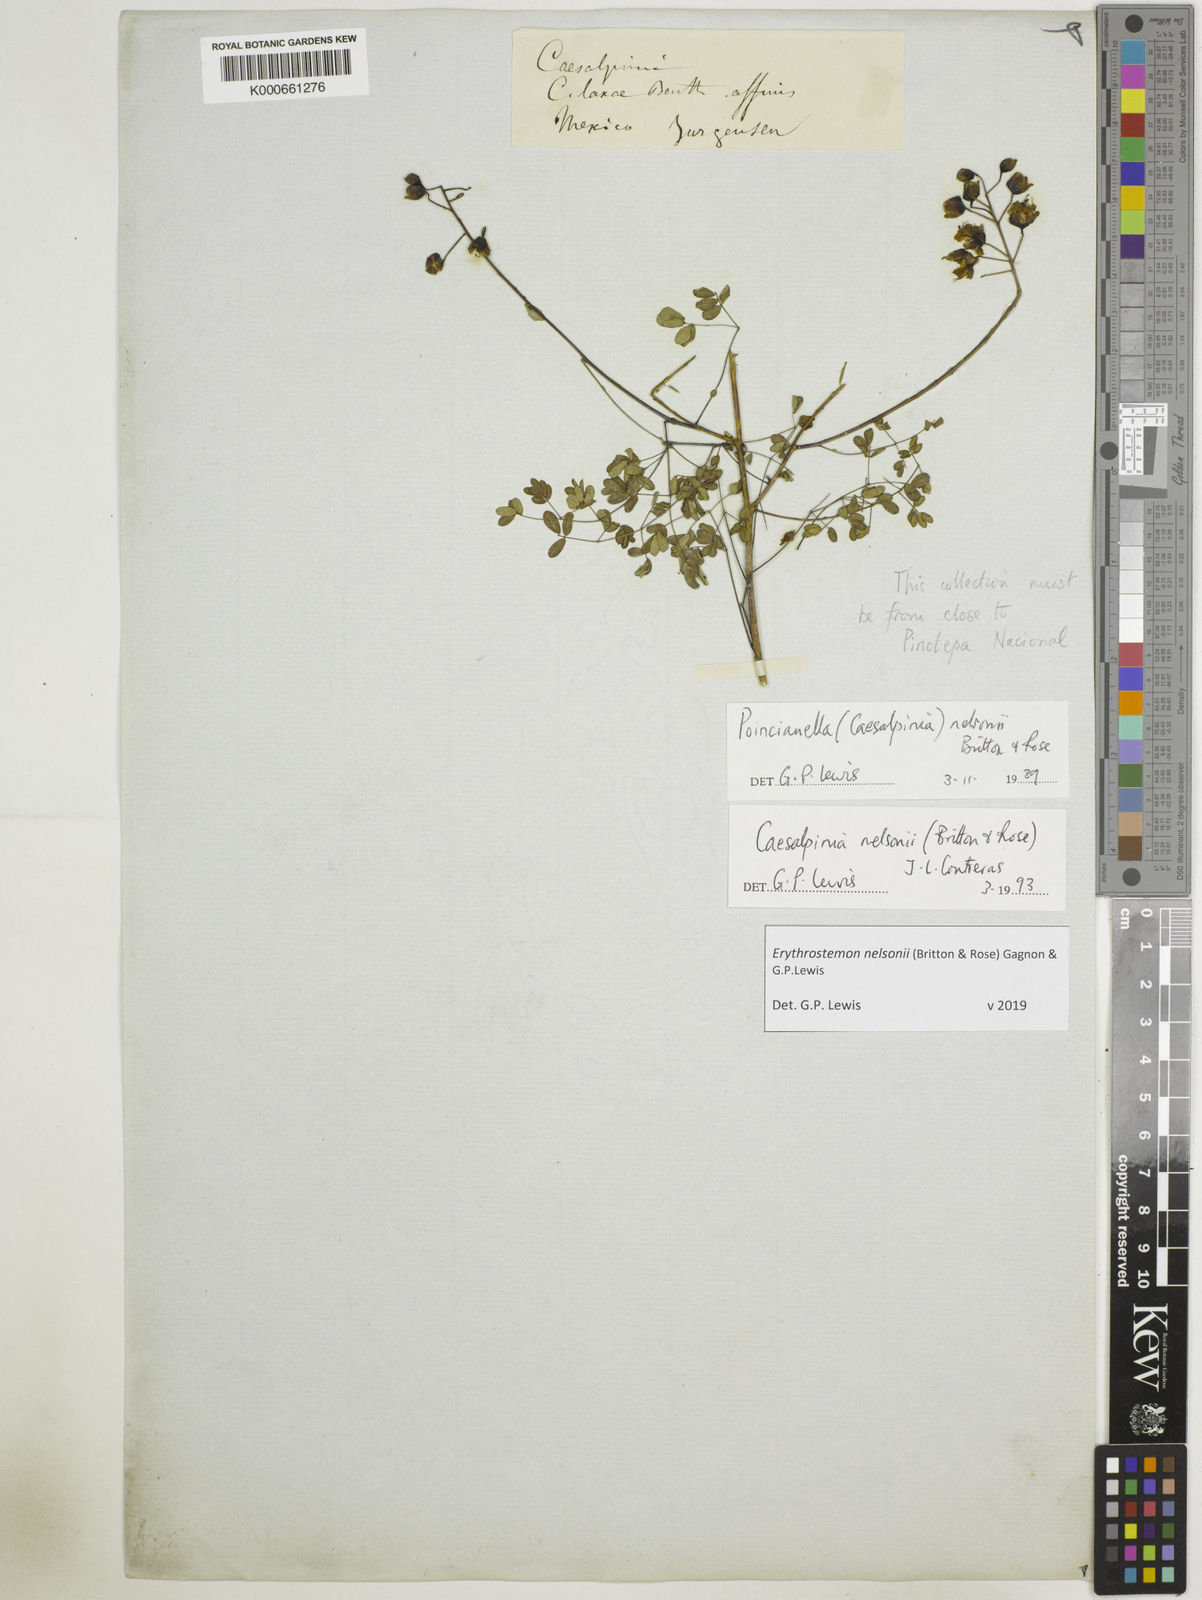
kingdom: Plantae
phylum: Tracheophyta
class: Magnoliopsida
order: Fabales
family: Fabaceae
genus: Erythrostemon
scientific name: Erythrostemon nelsonii
